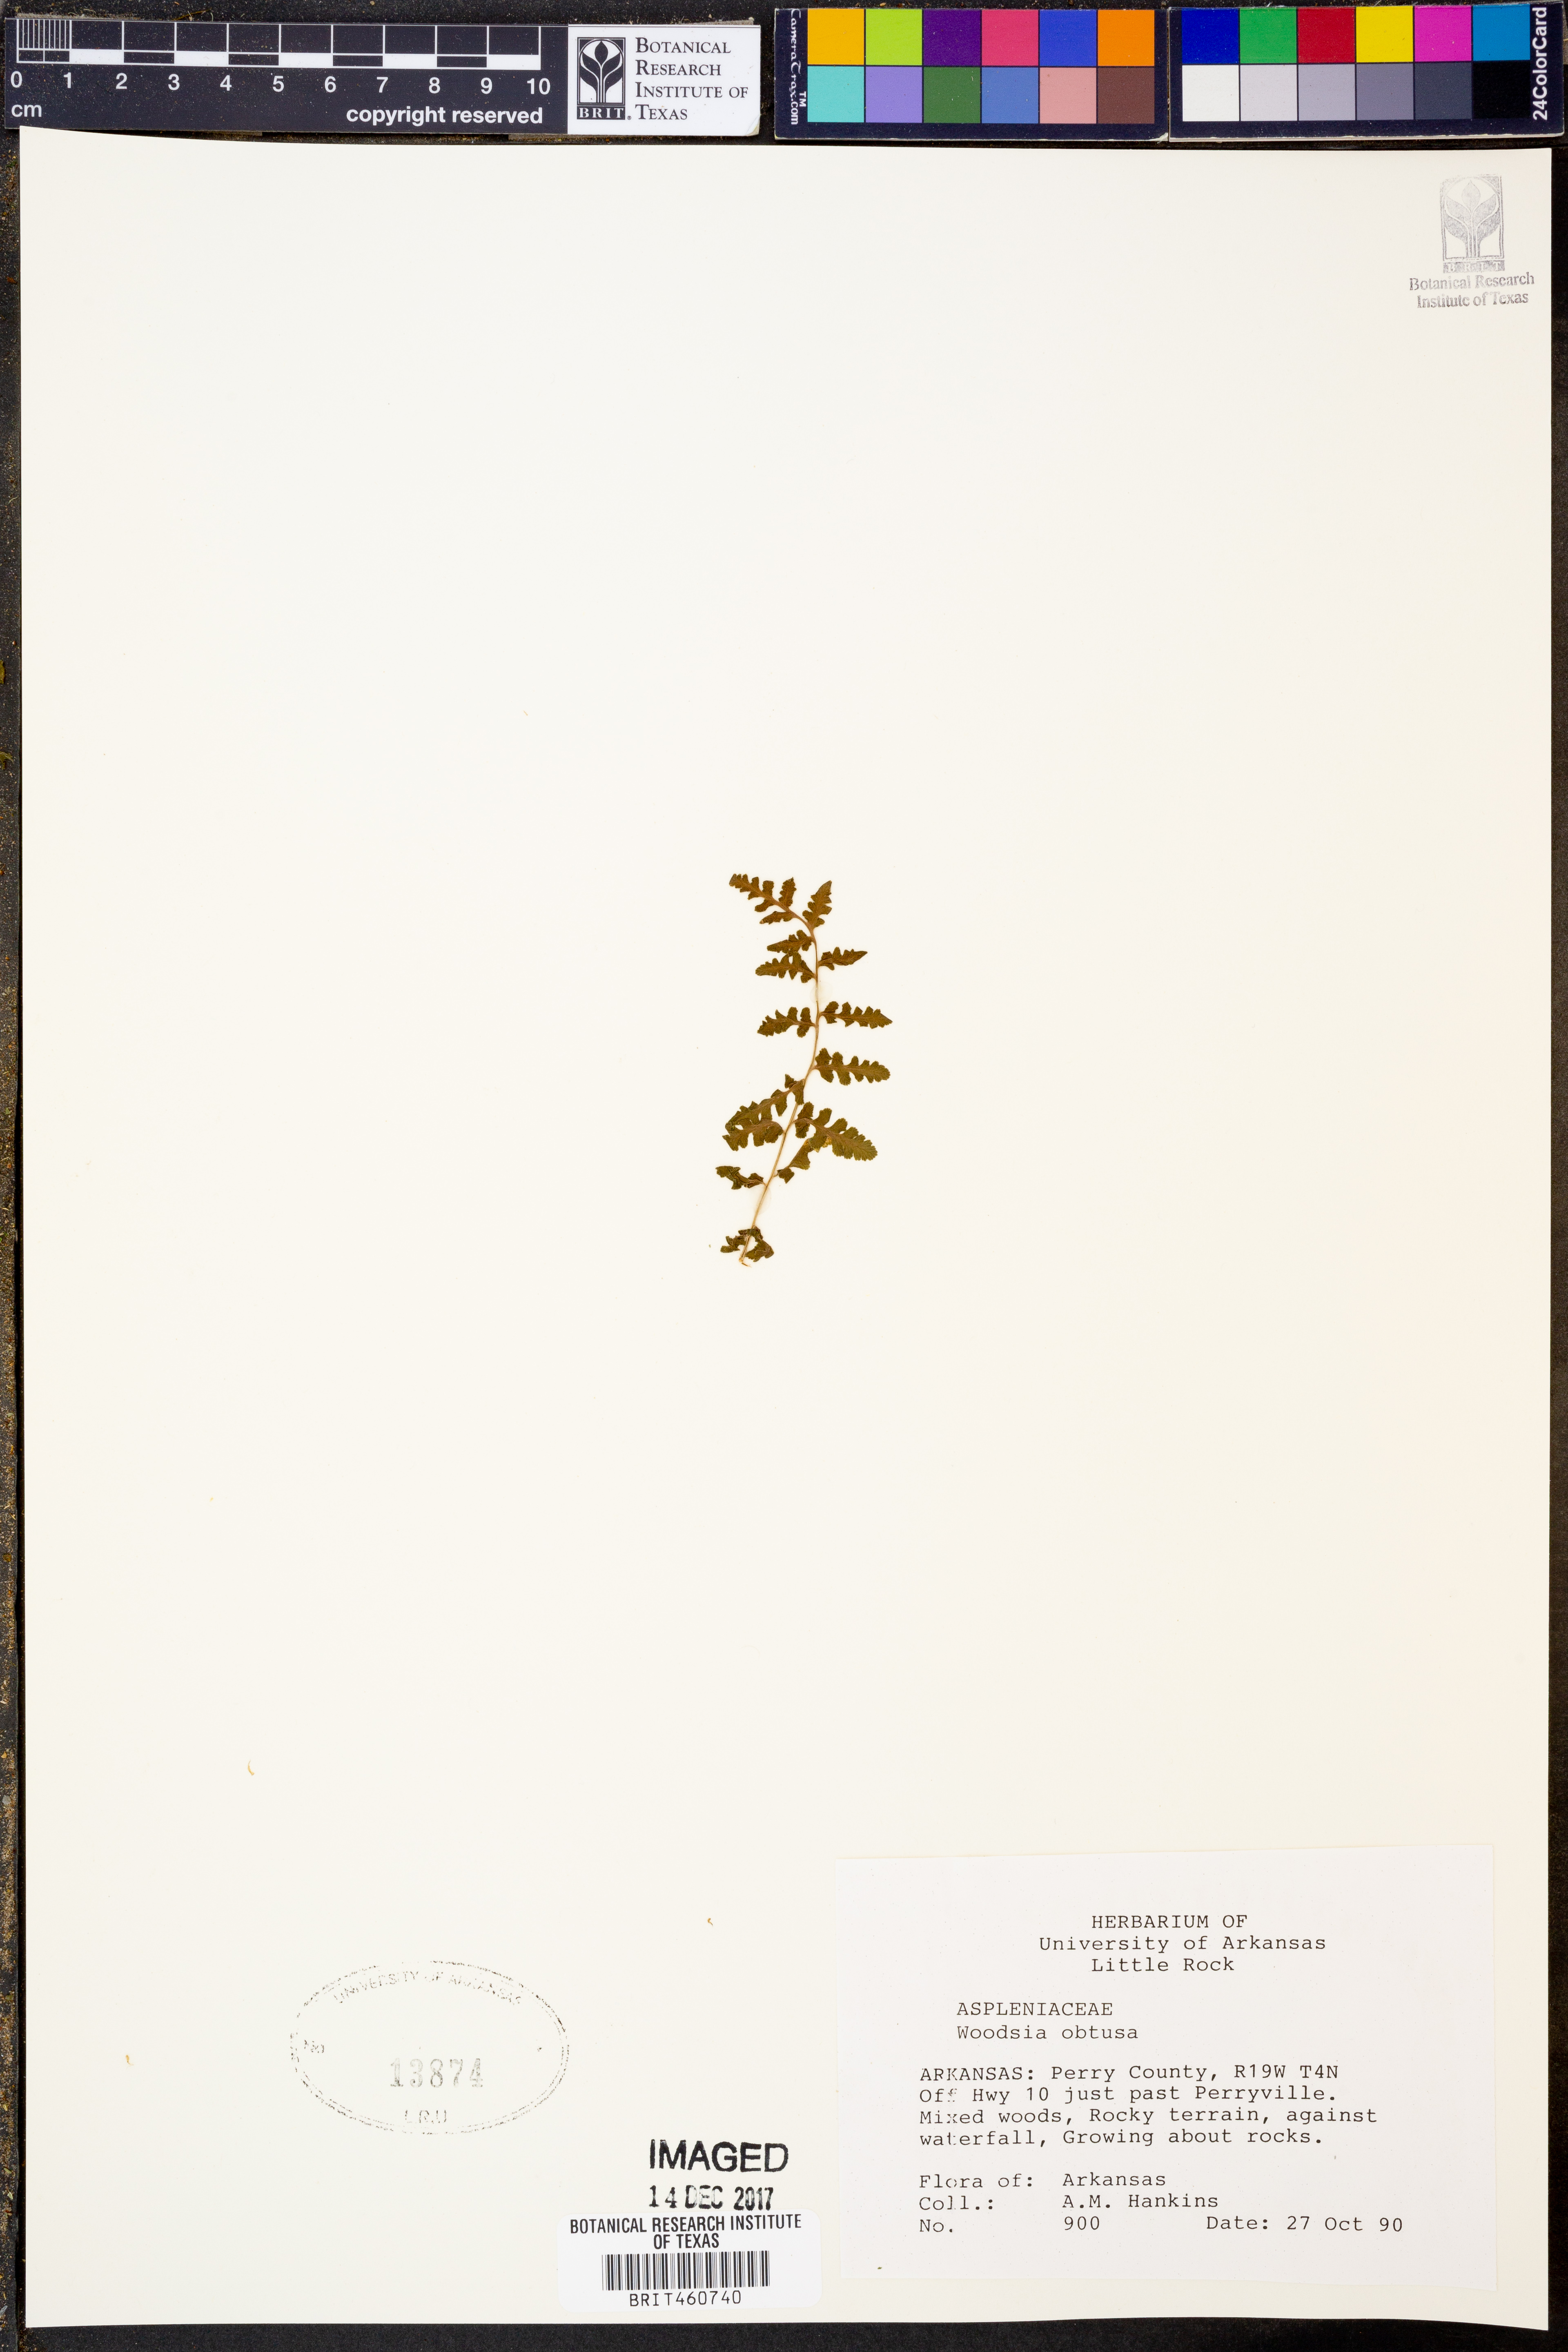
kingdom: Plantae
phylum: Tracheophyta
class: Polypodiopsida
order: Polypodiales
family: Woodsiaceae
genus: Physematium
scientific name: Physematium obtusum
